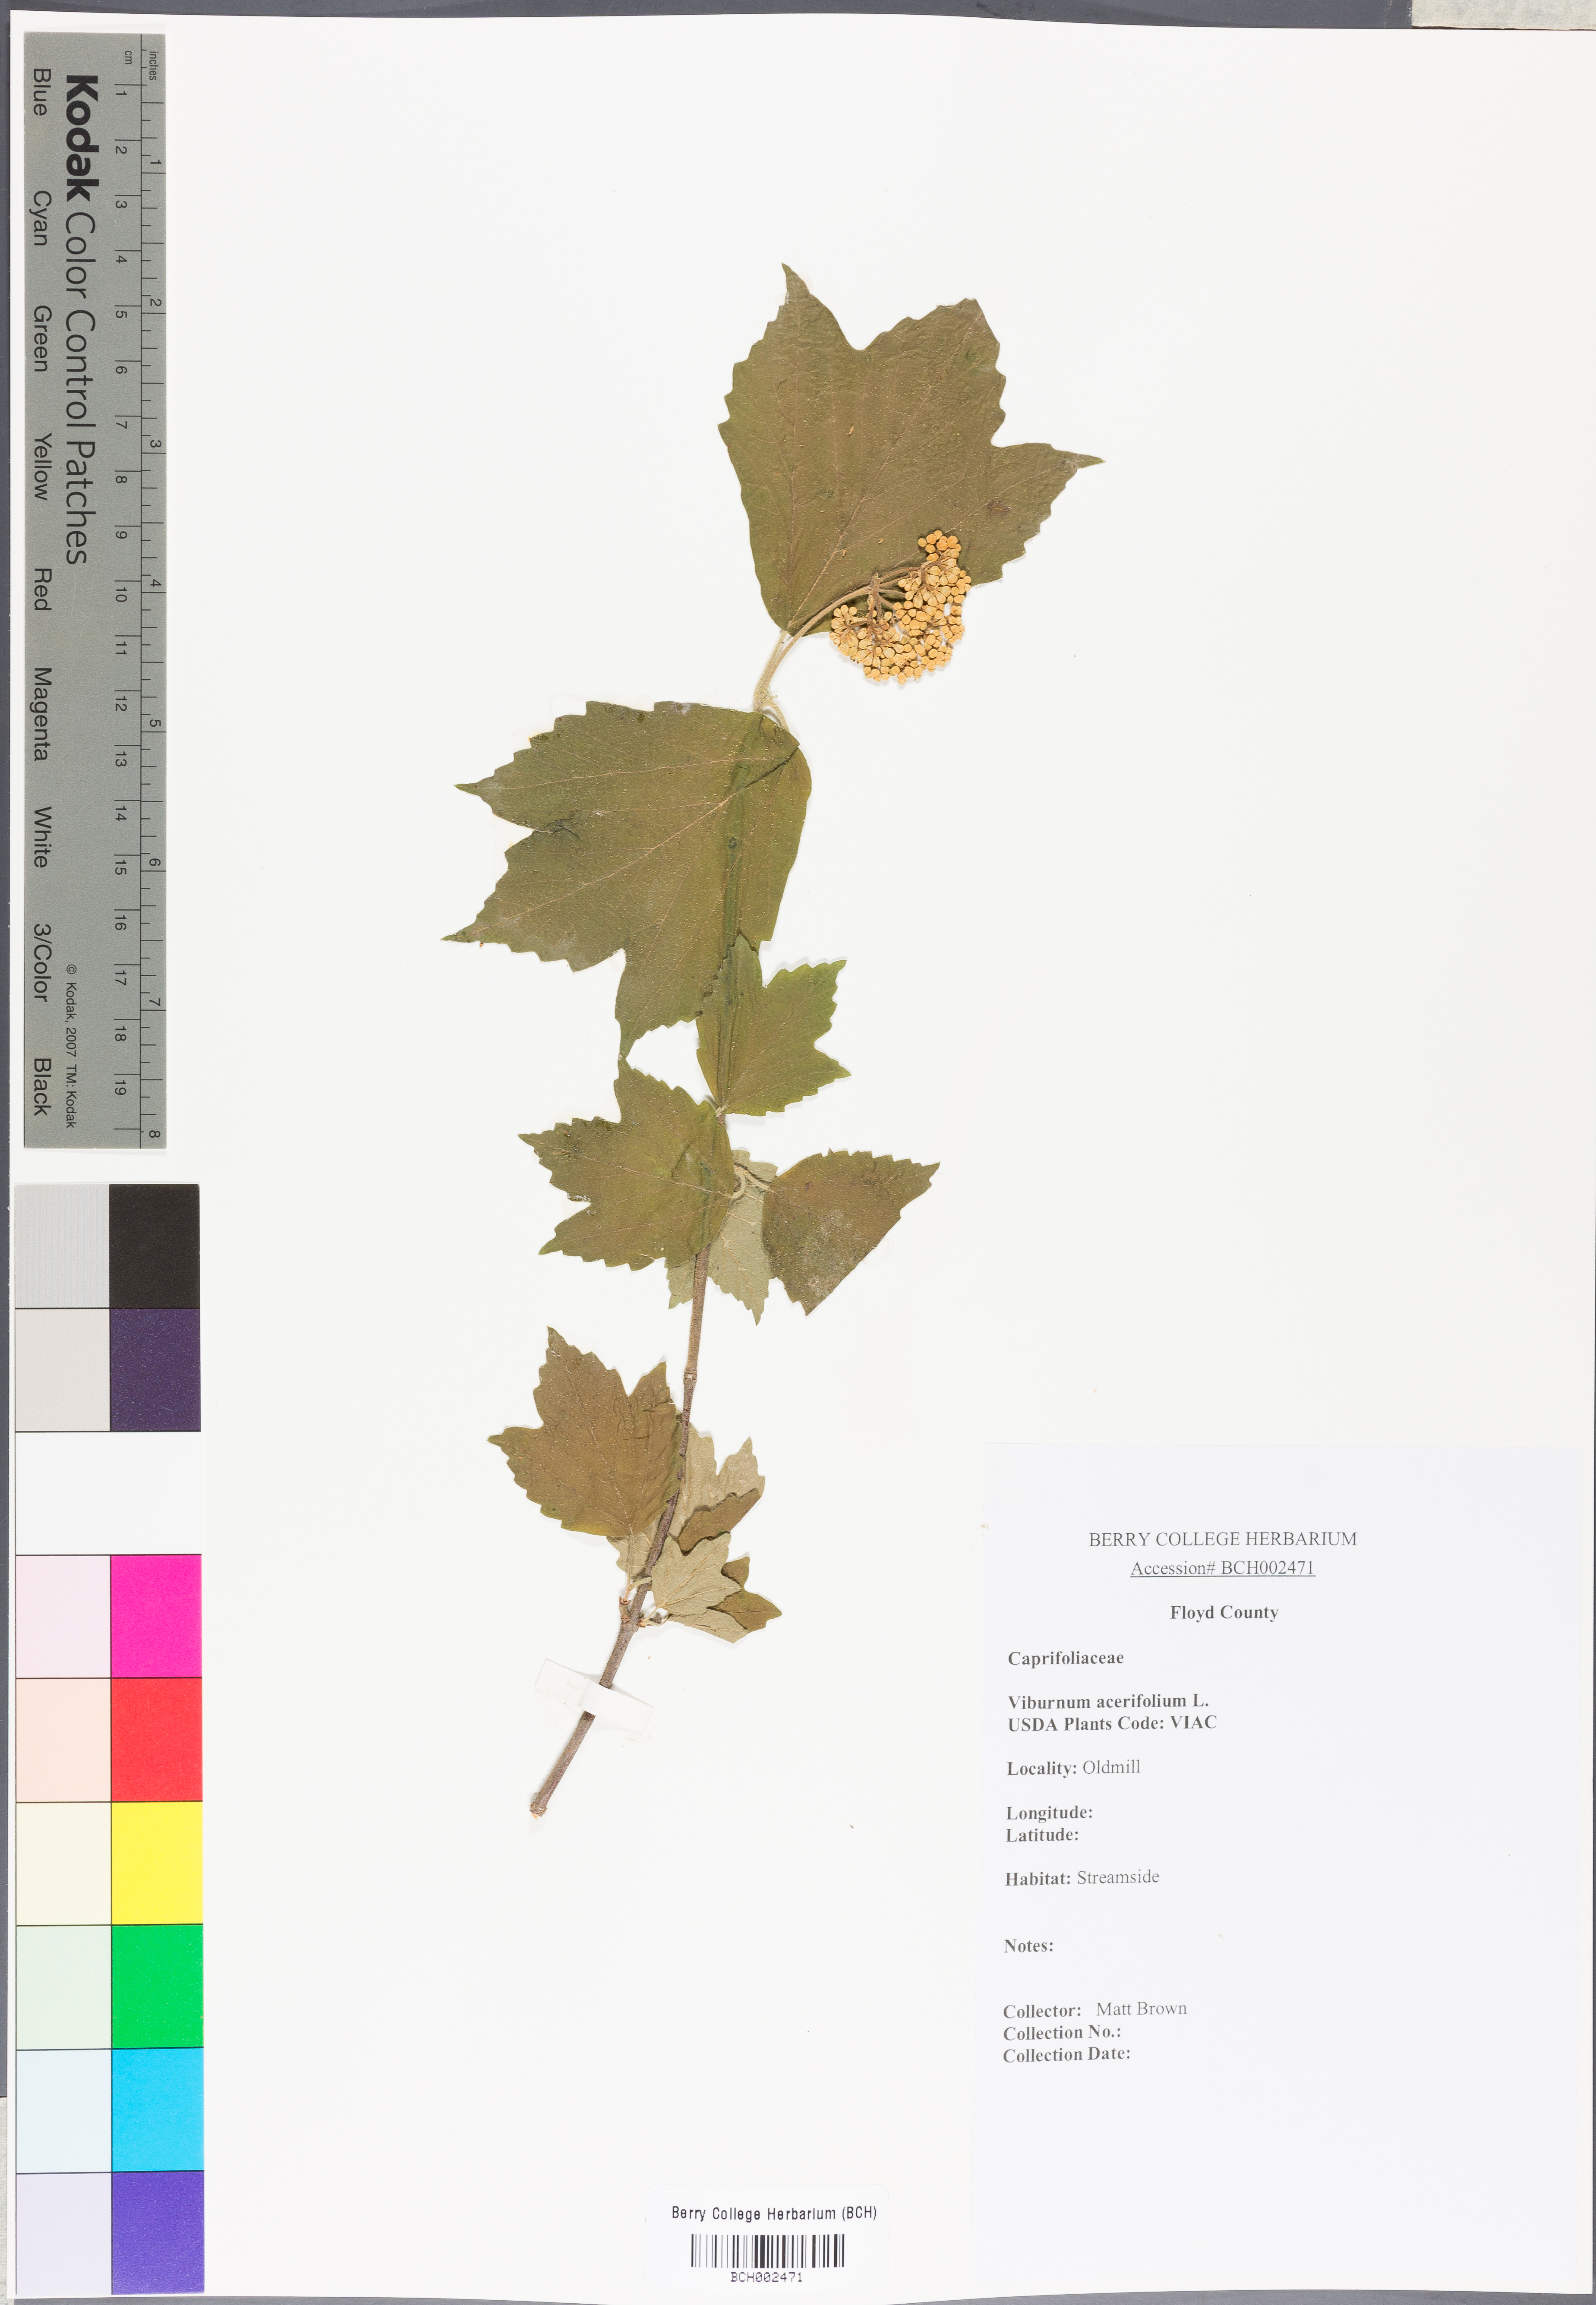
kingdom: Plantae
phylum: Tracheophyta
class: Magnoliopsida
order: Dipsacales
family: Viburnaceae
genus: Viburnum
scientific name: Viburnum acerifolium
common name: Dockmackie
